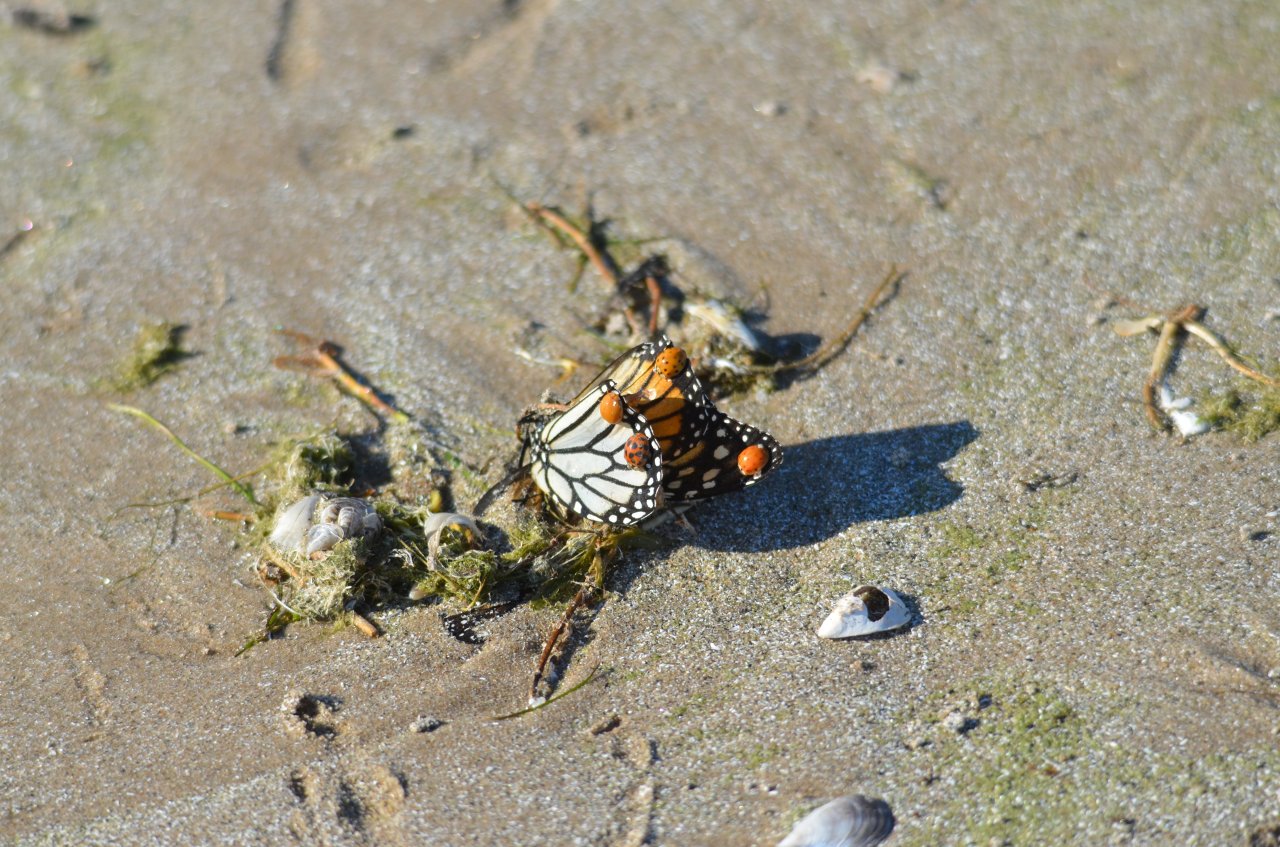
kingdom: Animalia
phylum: Arthropoda
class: Insecta
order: Lepidoptera
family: Nymphalidae
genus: Danaus
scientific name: Danaus plexippus
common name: Monarch
